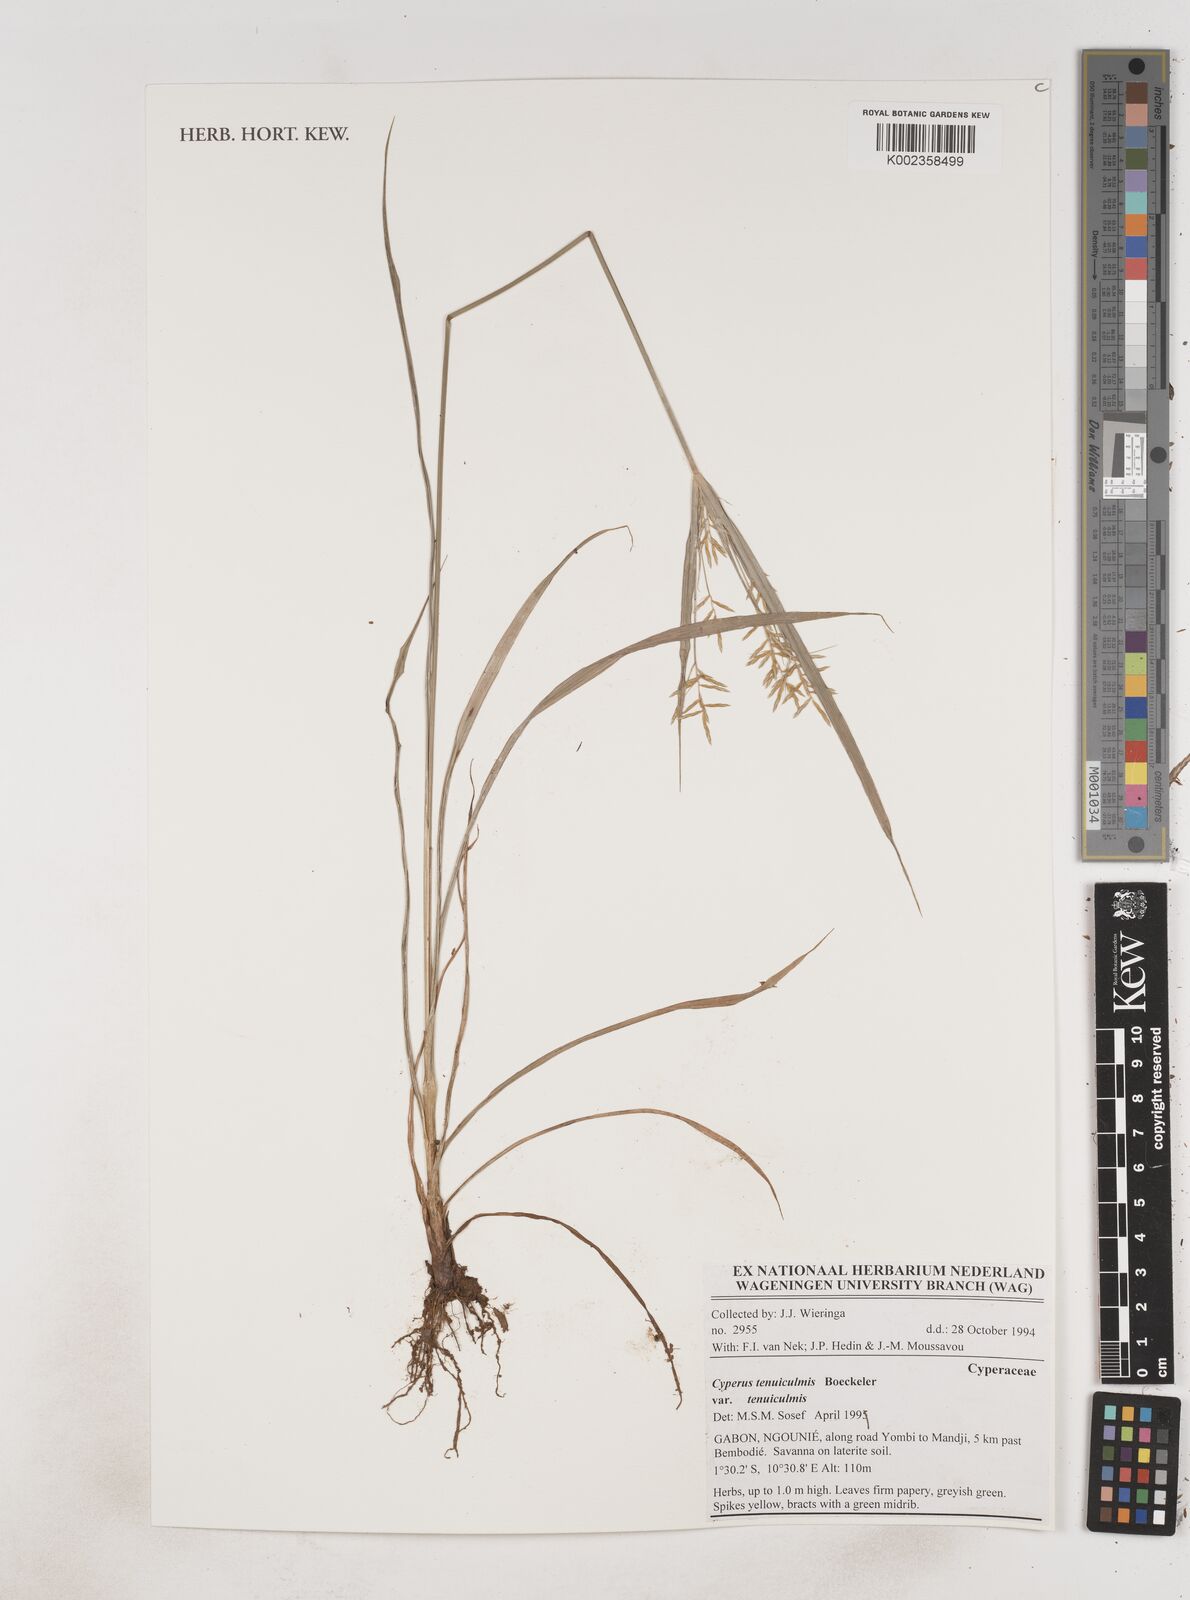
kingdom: Plantae
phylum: Tracheophyta
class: Liliopsida
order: Poales
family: Cyperaceae
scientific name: Cyperaceae
